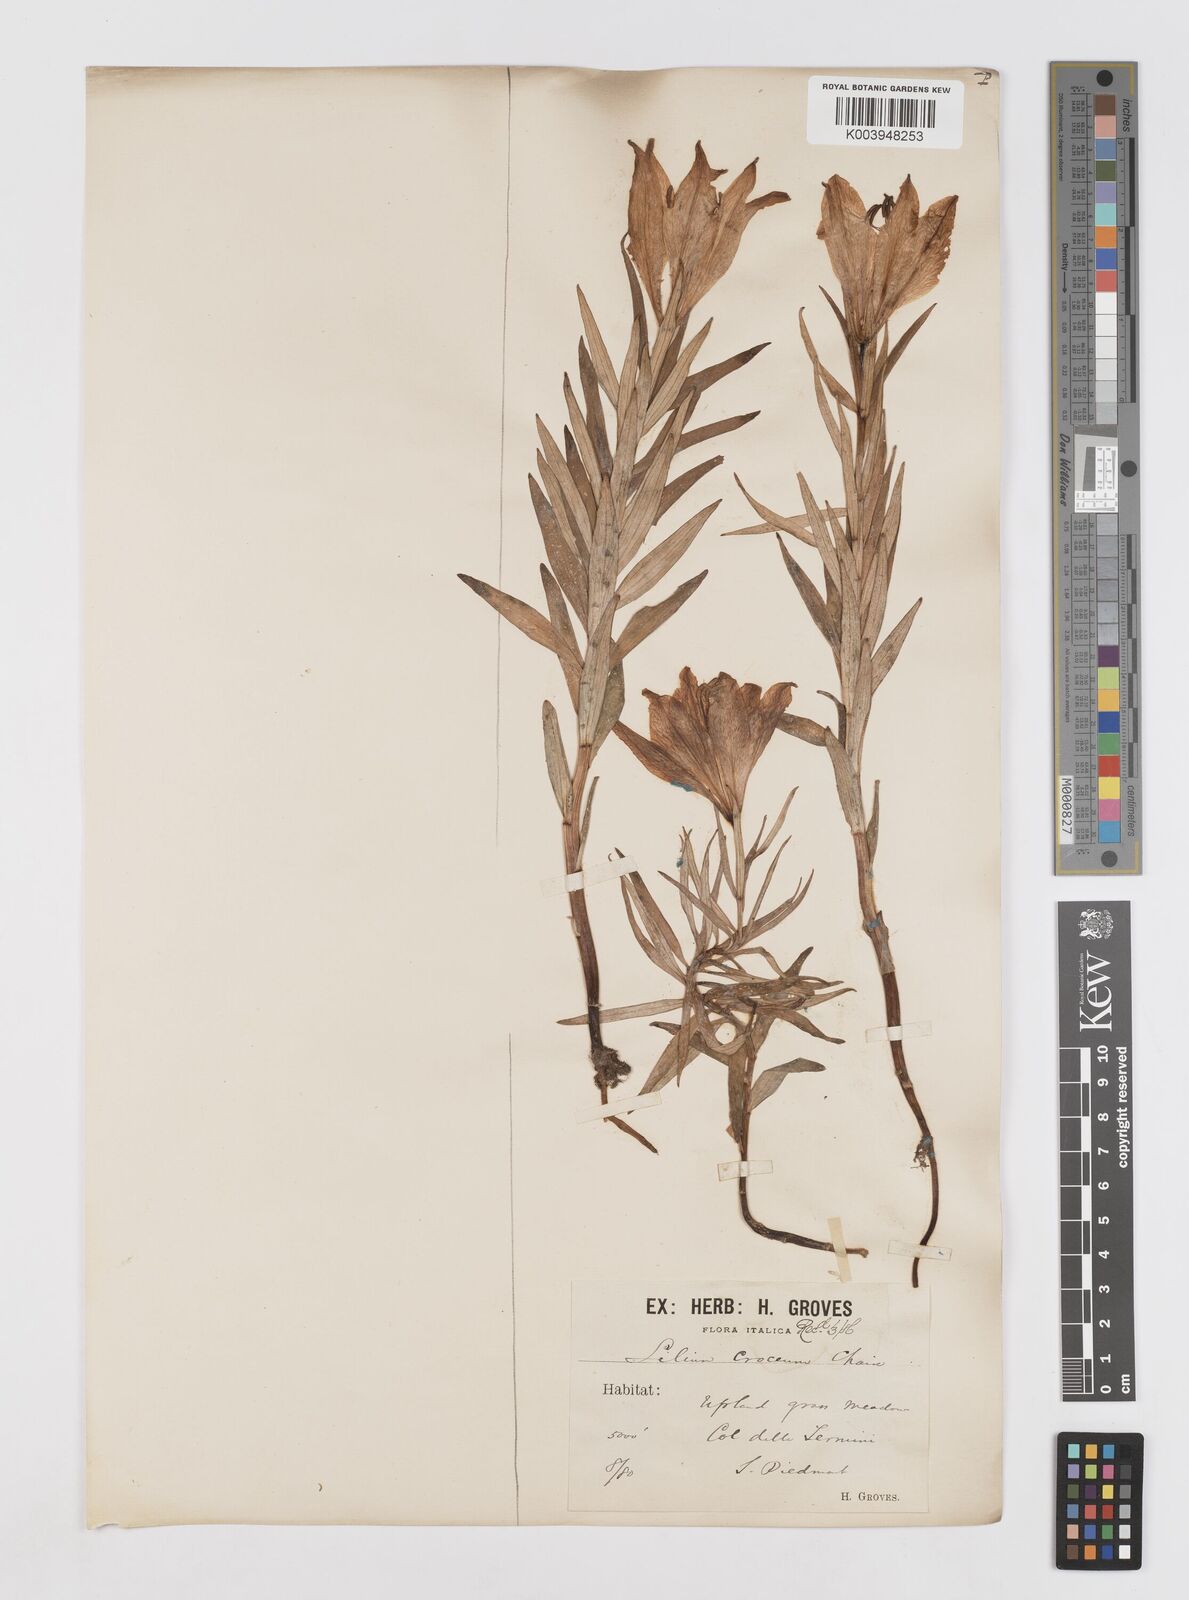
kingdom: Plantae
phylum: Tracheophyta
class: Liliopsida
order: Liliales
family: Liliaceae
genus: Lilium
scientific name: Lilium bulbiferum
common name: Orange lily
